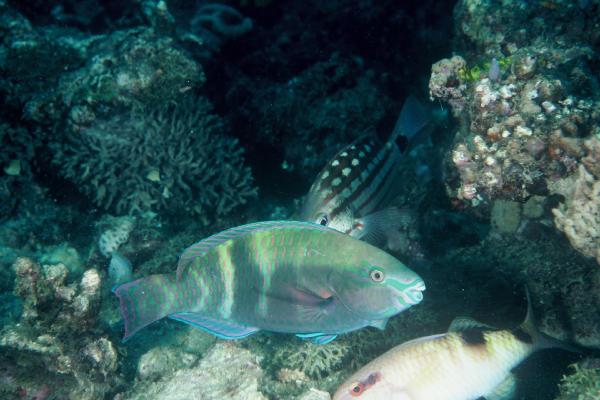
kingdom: Animalia
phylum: Chordata
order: Perciformes
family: Scaridae
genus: Scarus
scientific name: Scarus schlegeli
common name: Schlegel's parrotfish
